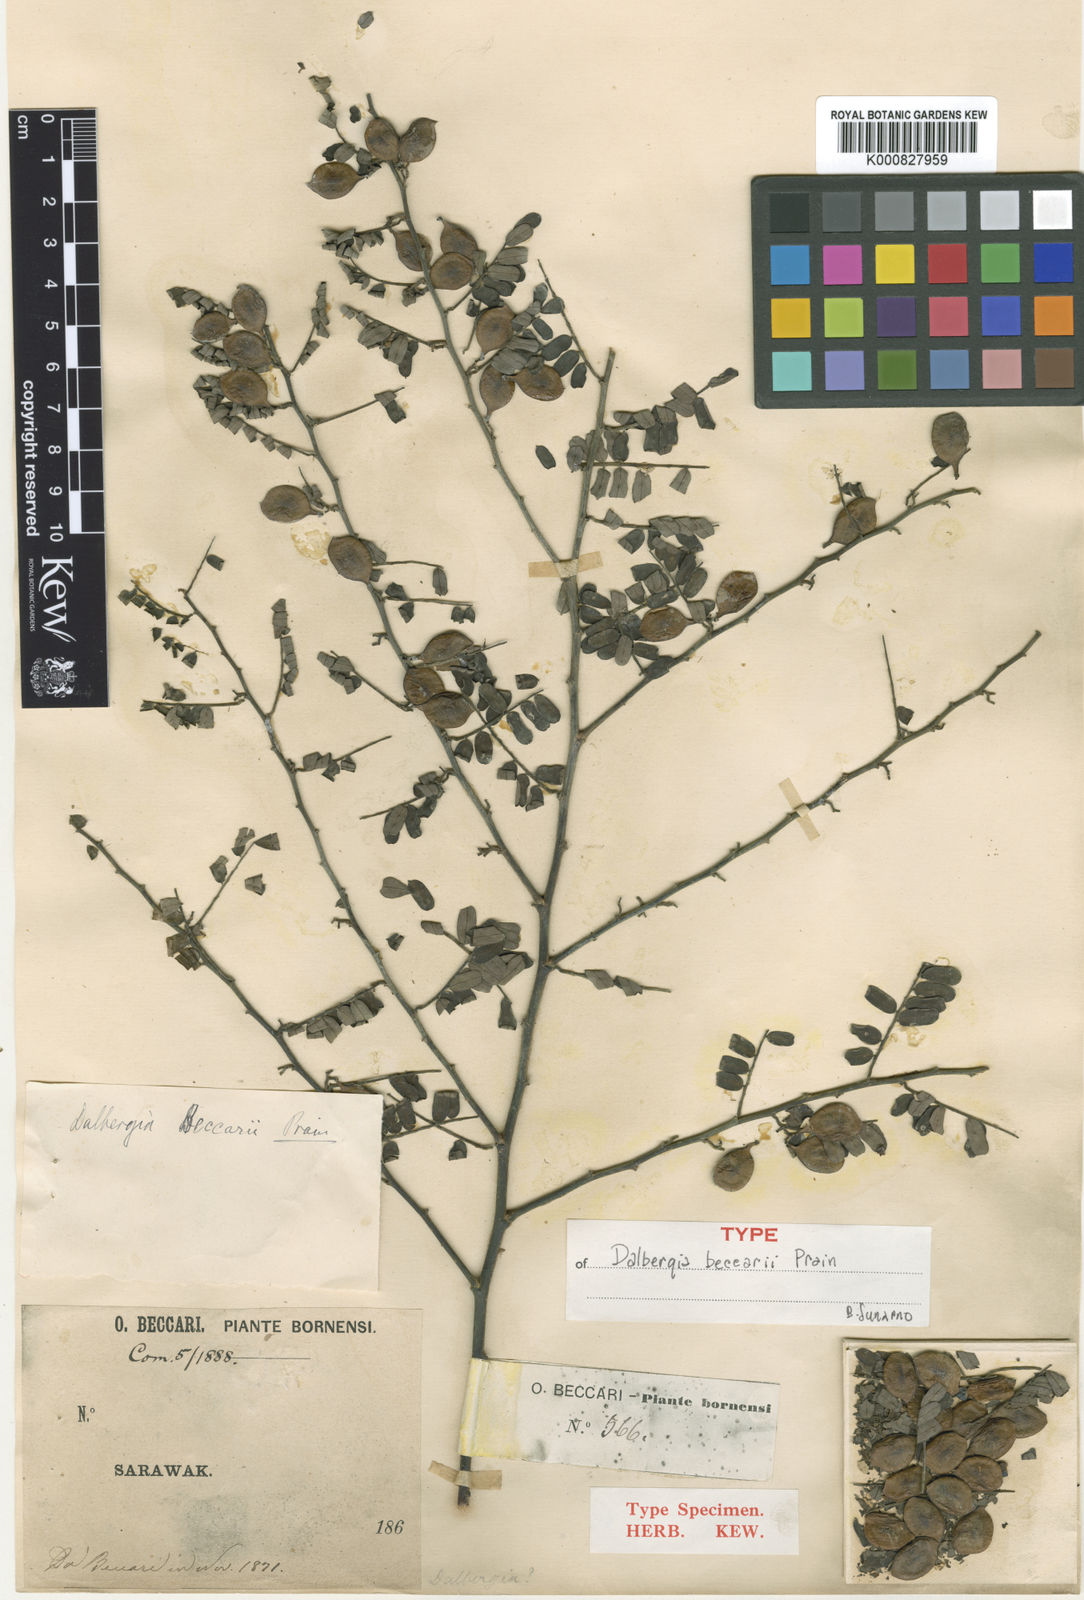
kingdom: Plantae
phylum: Tracheophyta
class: Magnoliopsida
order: Fabales
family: Fabaceae
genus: Dalbergia
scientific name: Dalbergia beccarii
